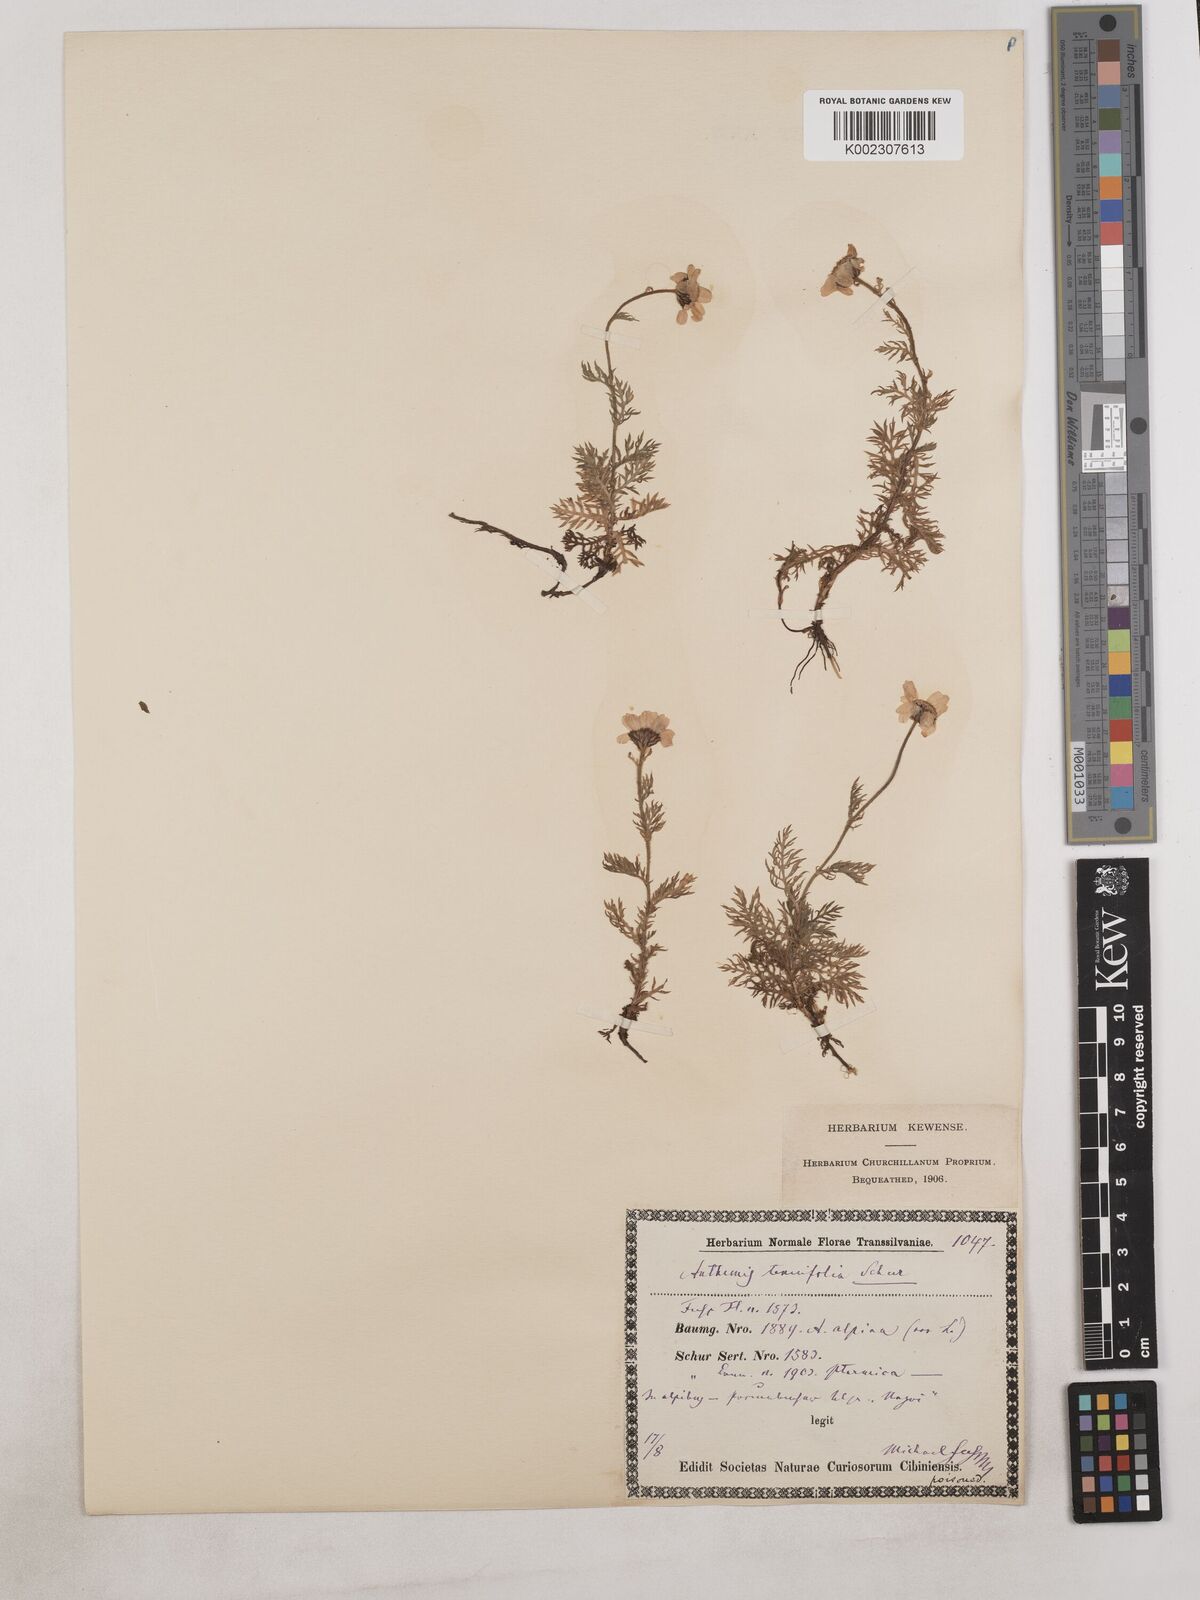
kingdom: Plantae
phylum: Tracheophyta
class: Magnoliopsida
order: Asterales
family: Asteraceae
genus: Achillea
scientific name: Achillea millefolium
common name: Yarrow
